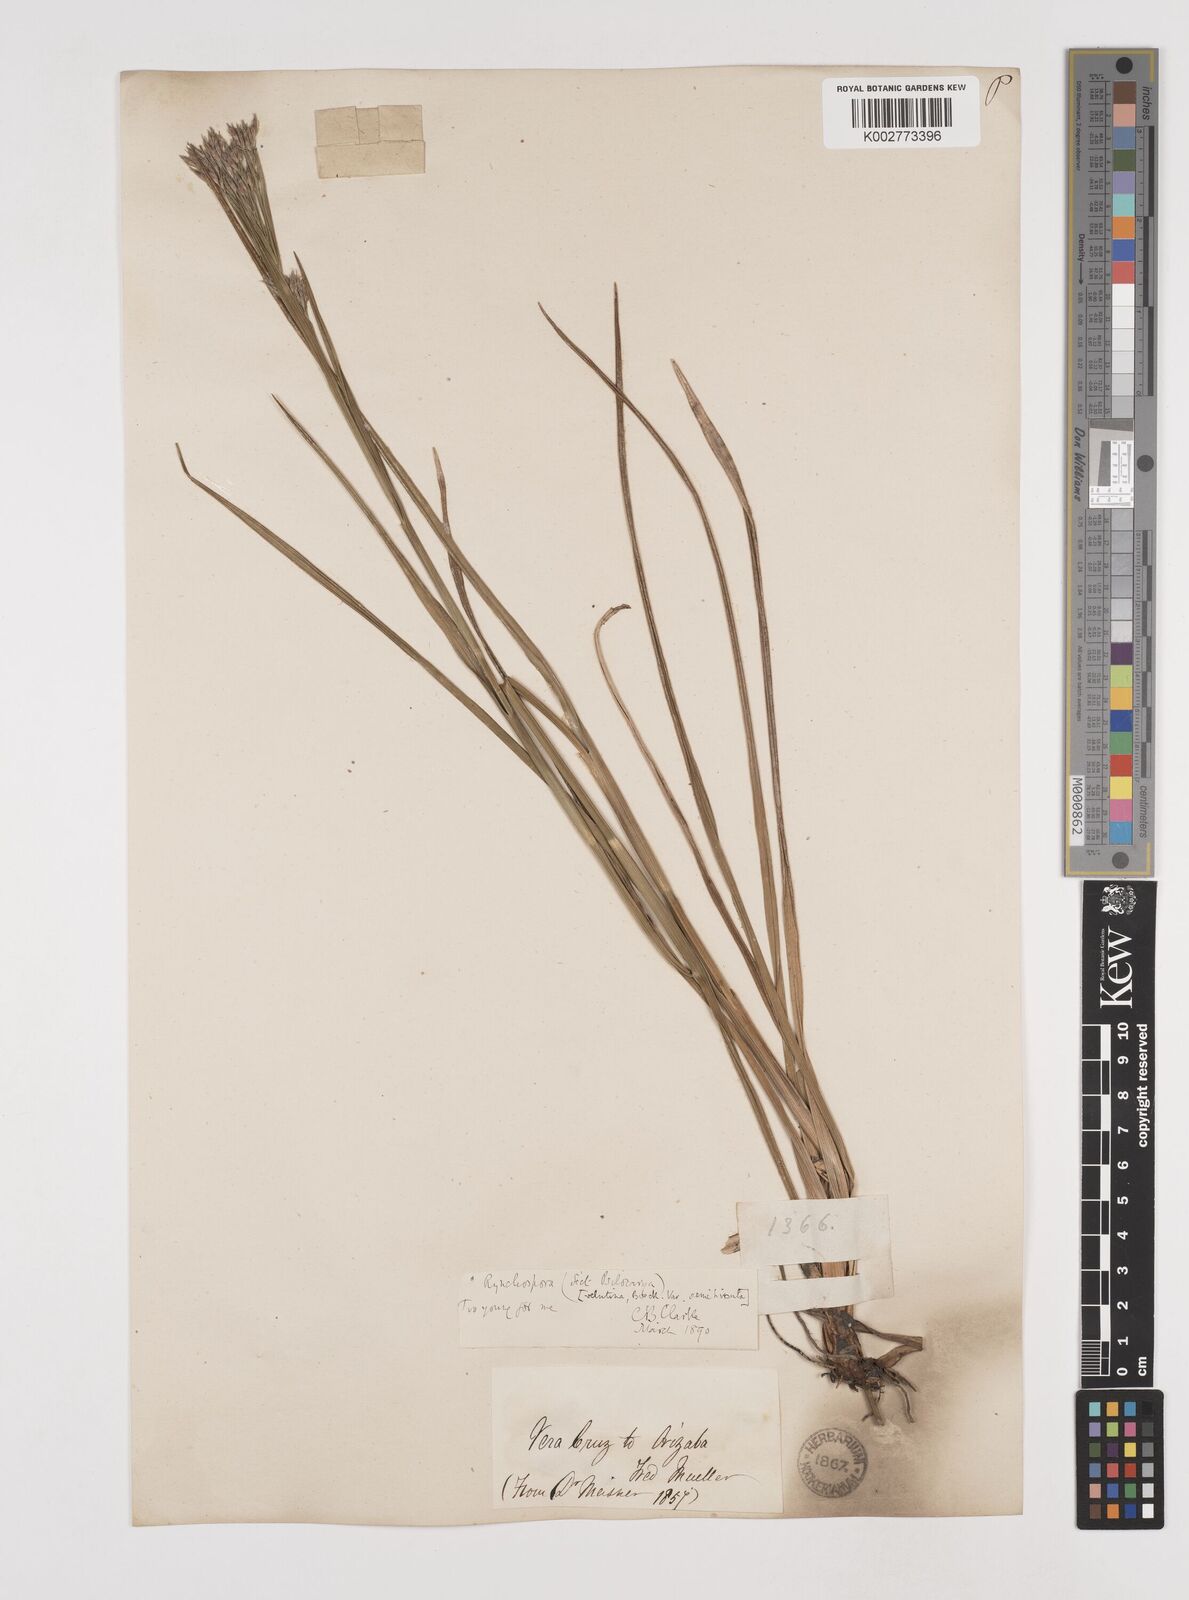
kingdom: Plantae
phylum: Tracheophyta
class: Liliopsida
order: Poales
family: Cyperaceae
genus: Rhynchospora
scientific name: Rhynchospora velutina
